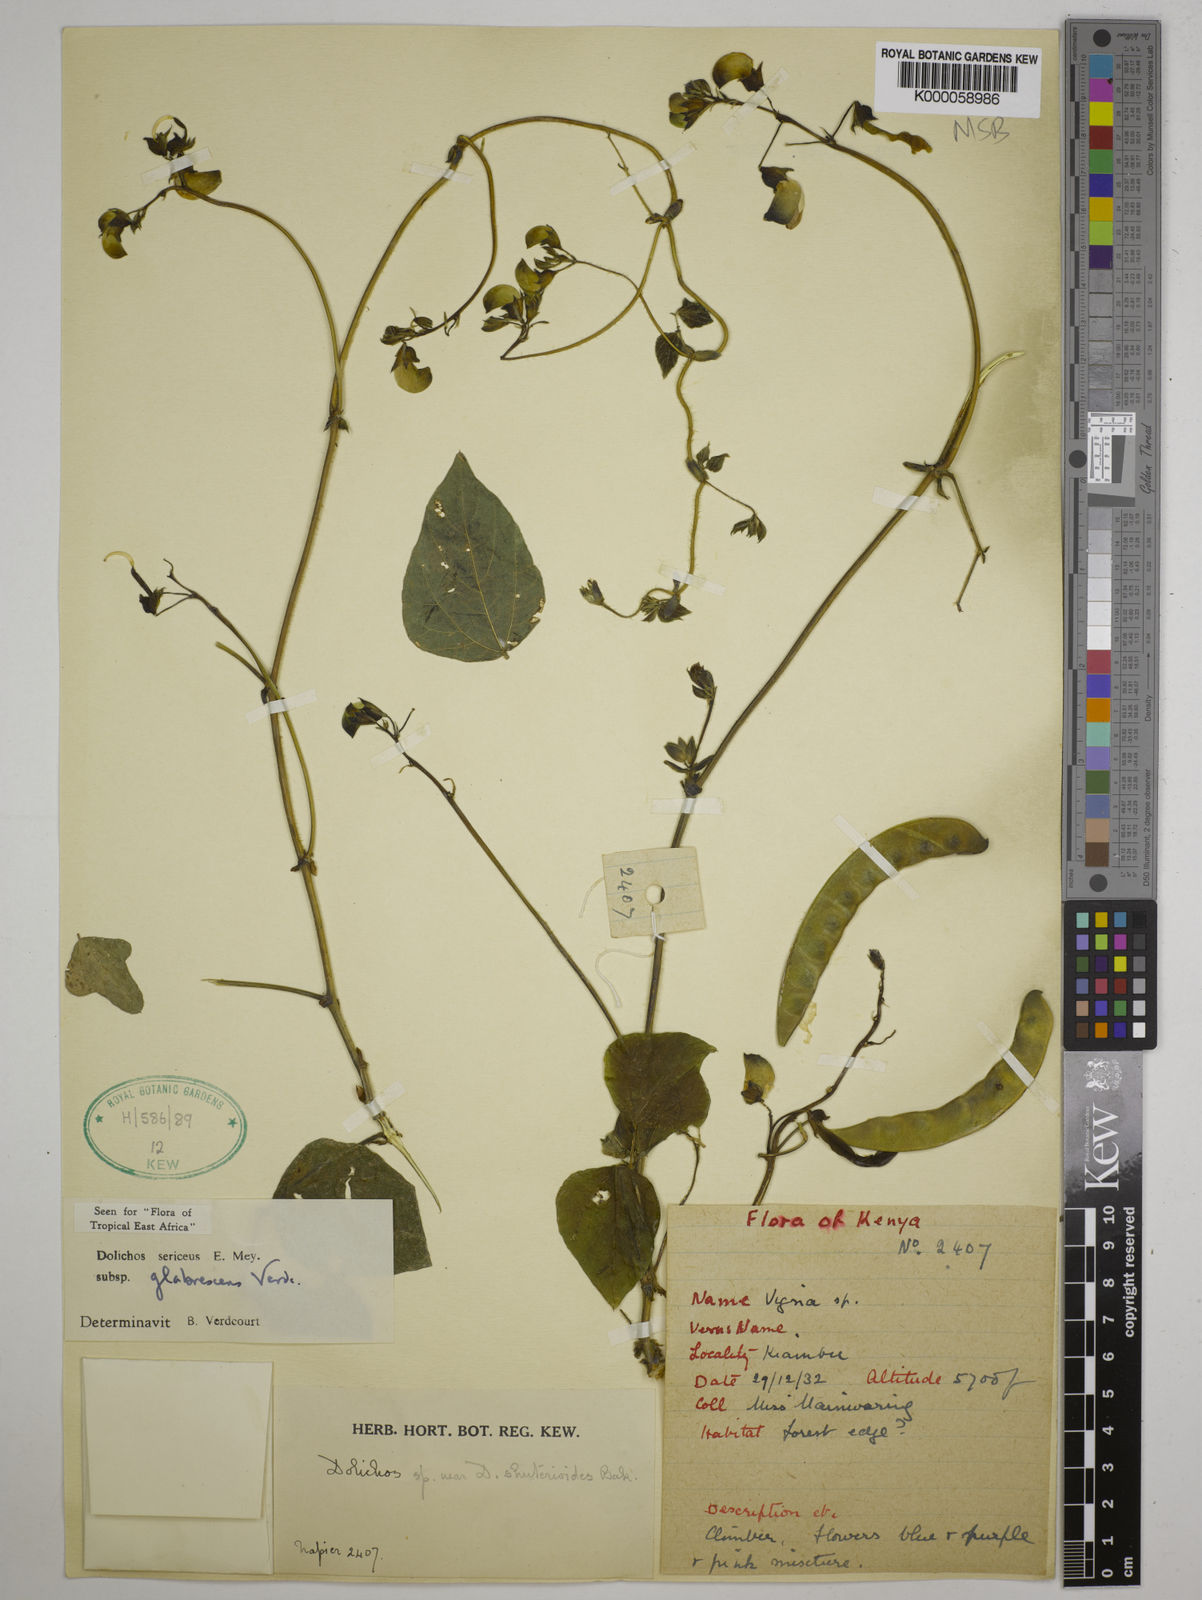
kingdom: Plantae
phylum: Tracheophyta
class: Magnoliopsida
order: Fabales
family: Fabaceae
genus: Dolichos
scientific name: Dolichos sericeus
